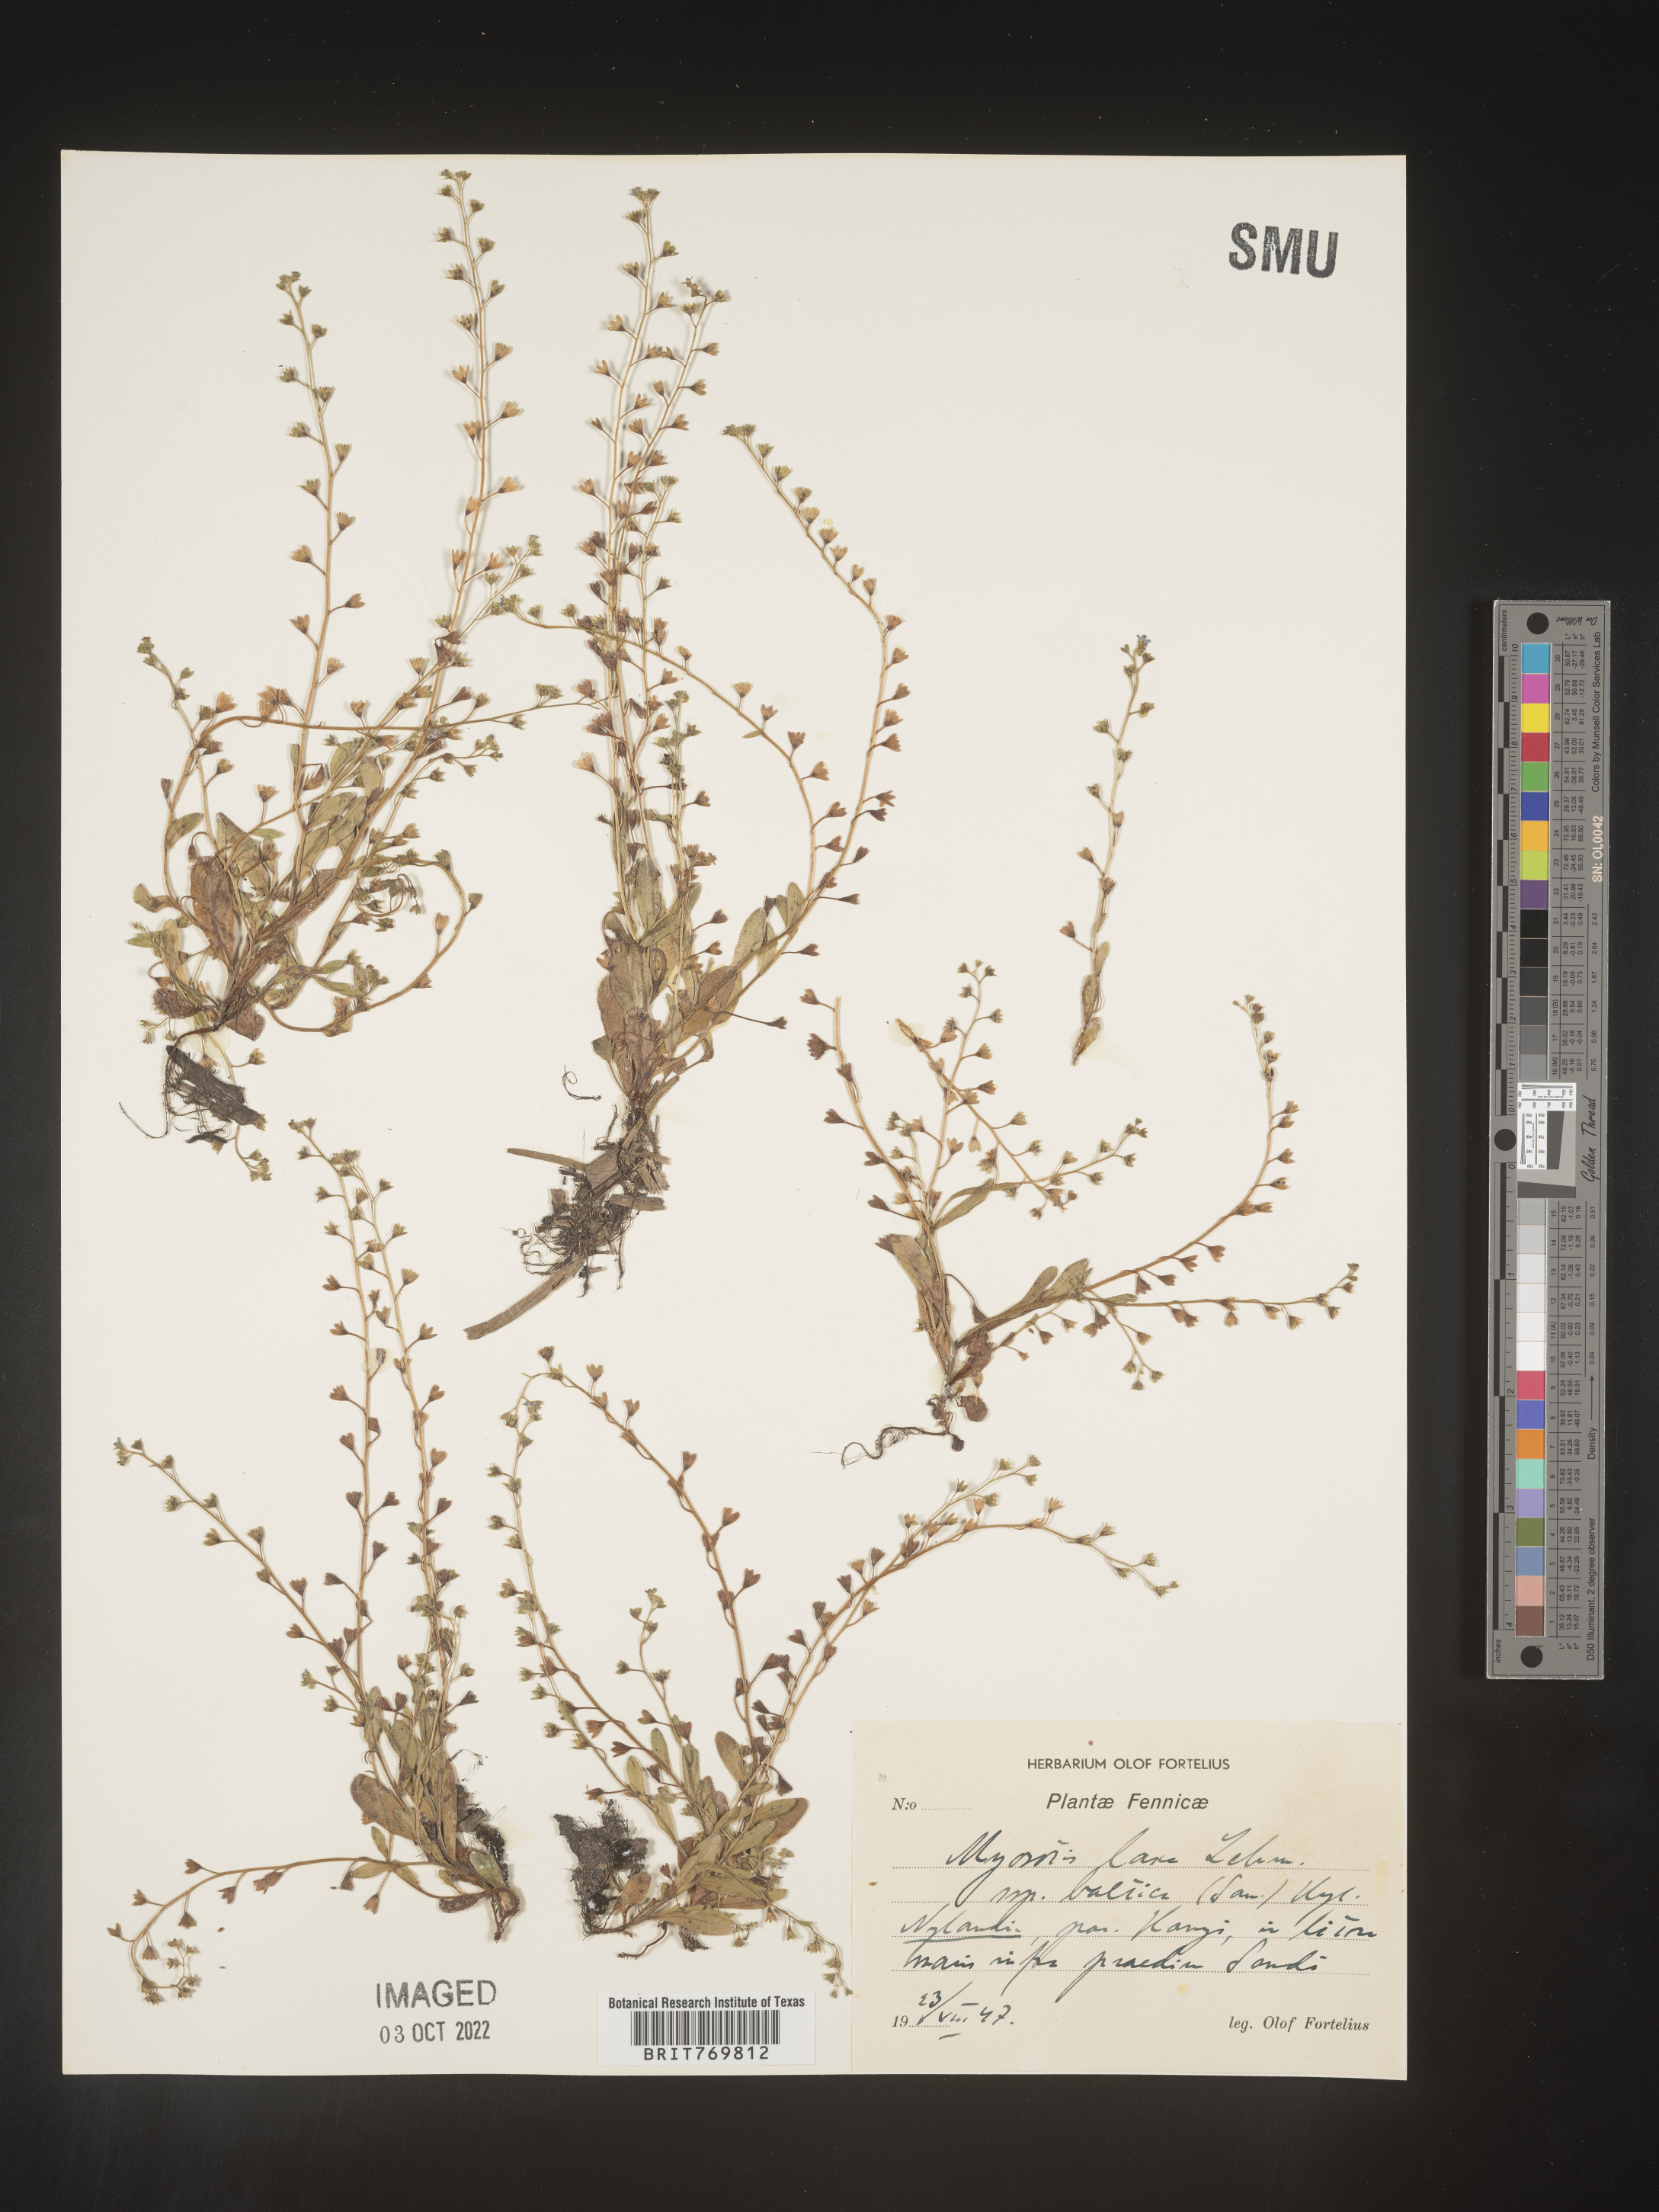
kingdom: Plantae
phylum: Tracheophyta
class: Magnoliopsida
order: Boraginales
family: Boraginaceae
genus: Myosotis
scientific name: Myosotis
